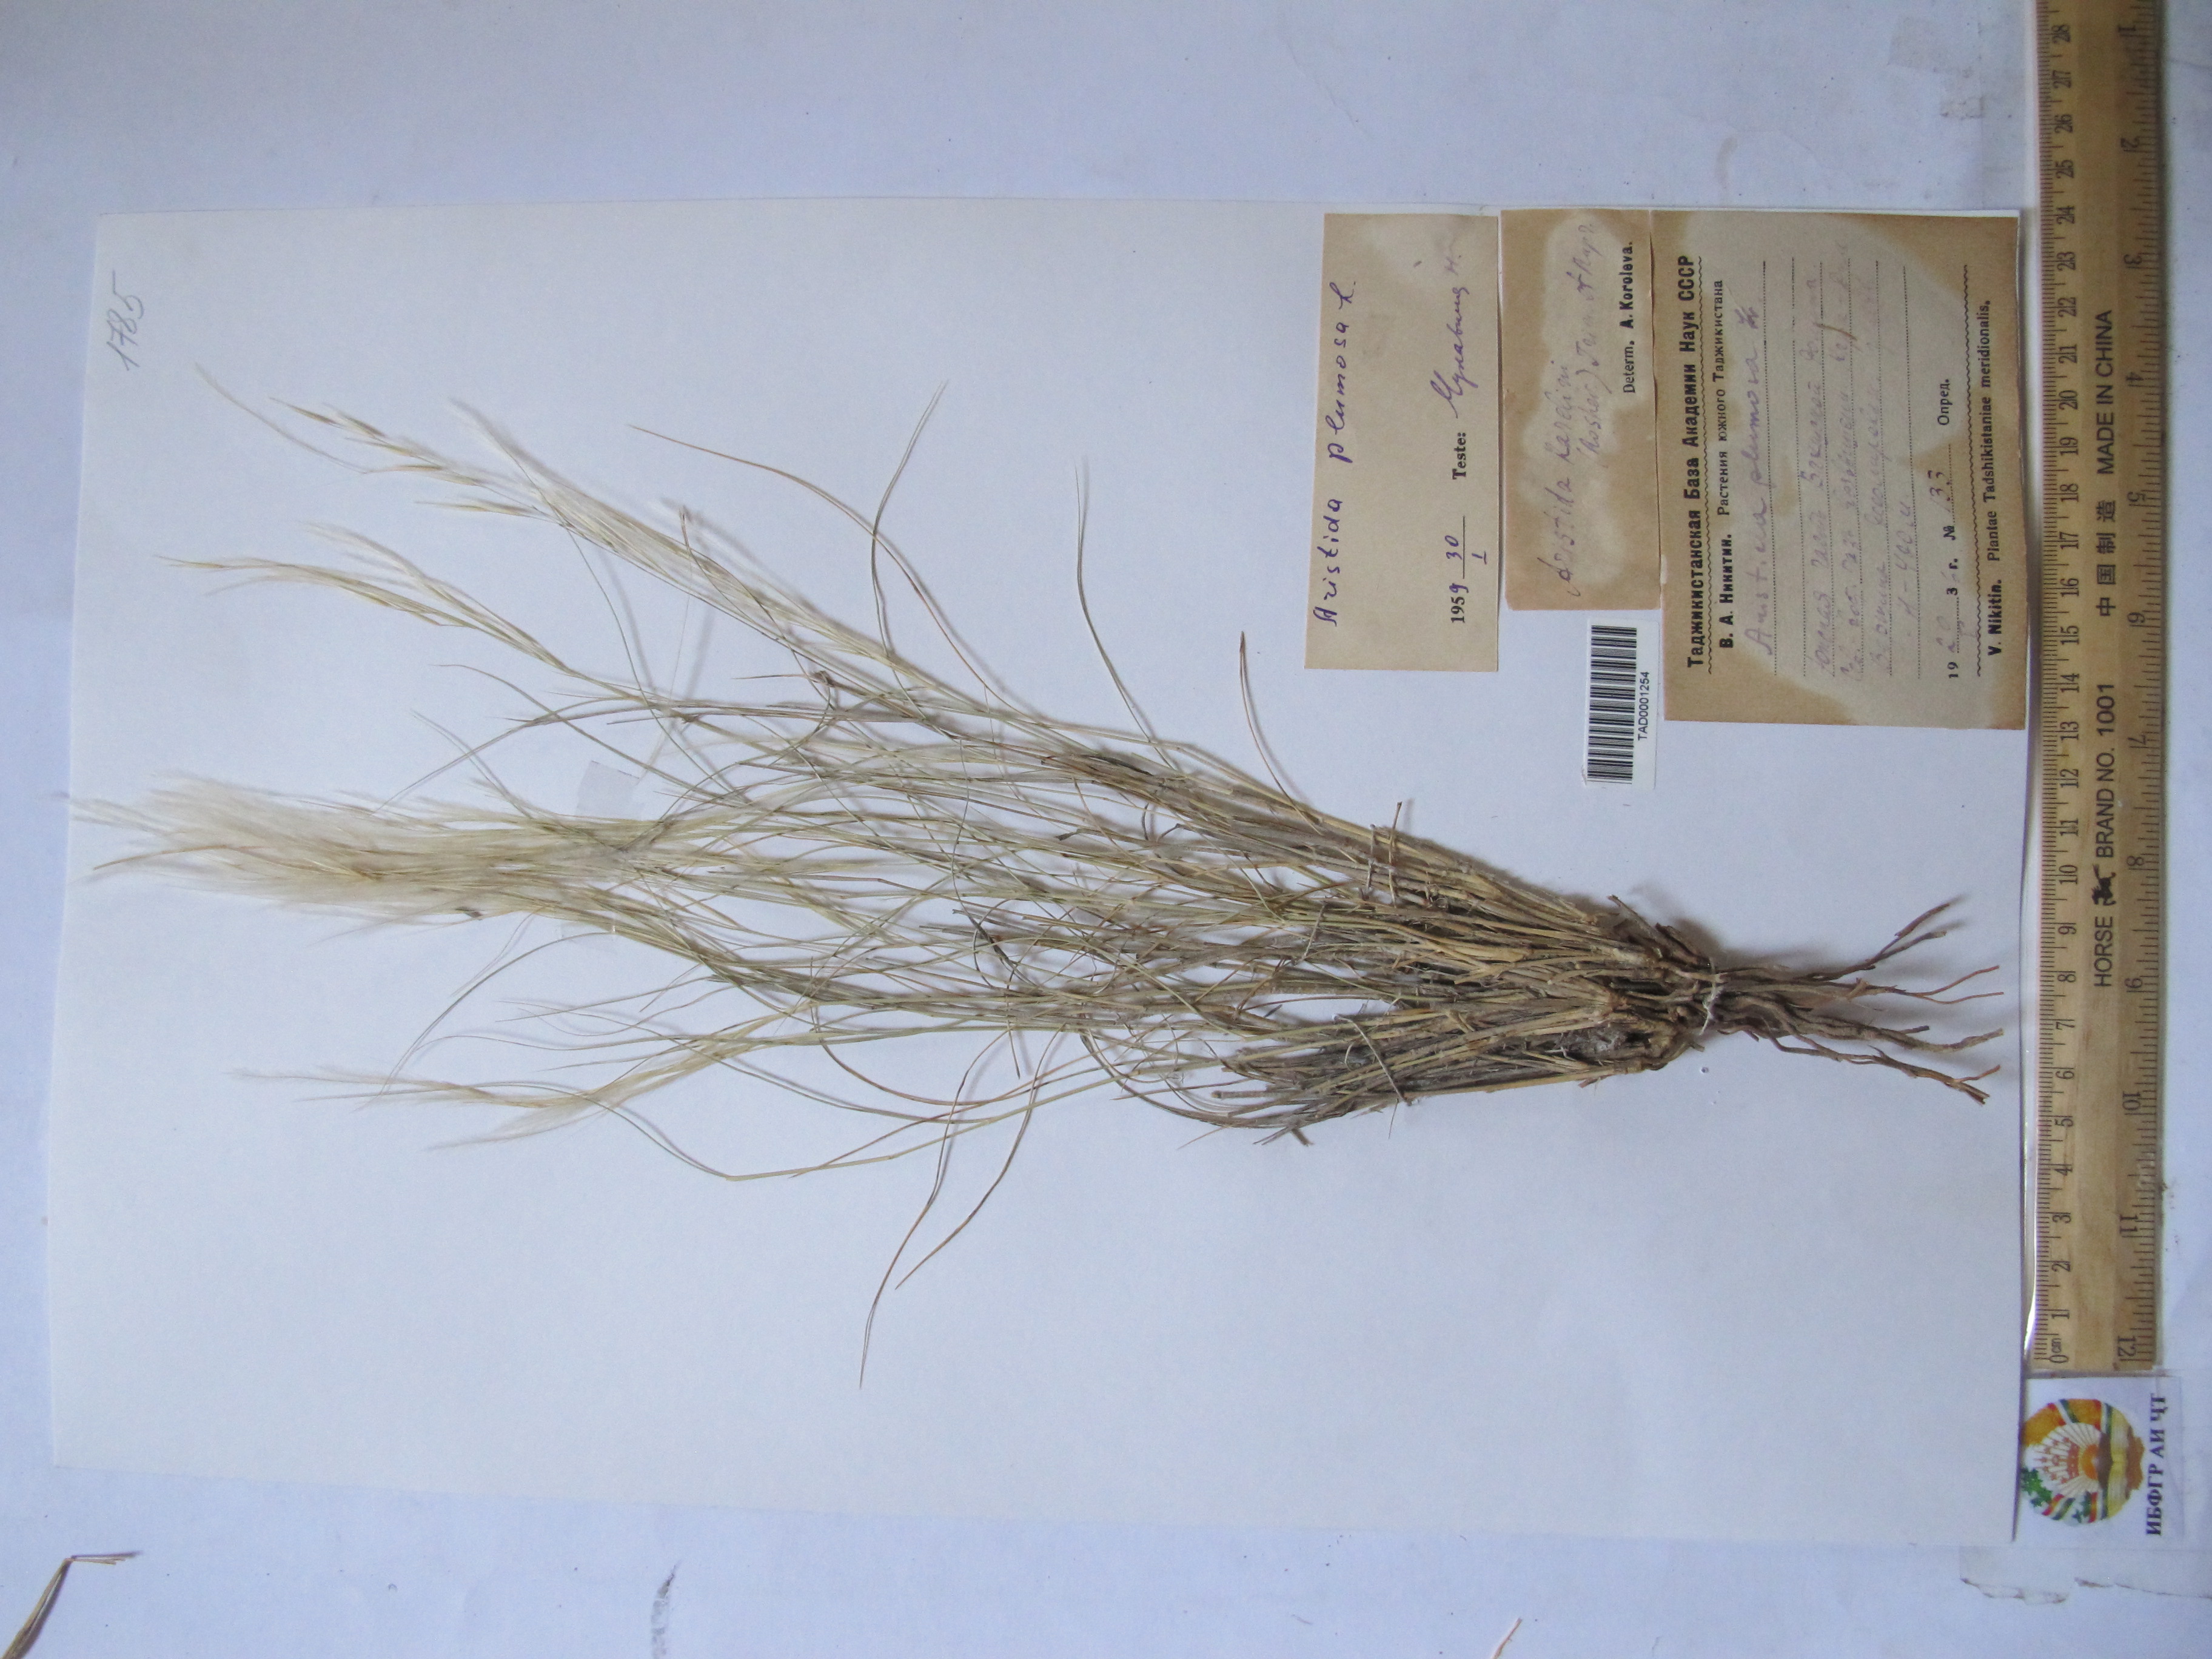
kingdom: Plantae
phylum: Tracheophyta
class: Liliopsida
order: Poales
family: Poaceae
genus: Stipagrostis
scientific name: Stipagrostis plumosa
